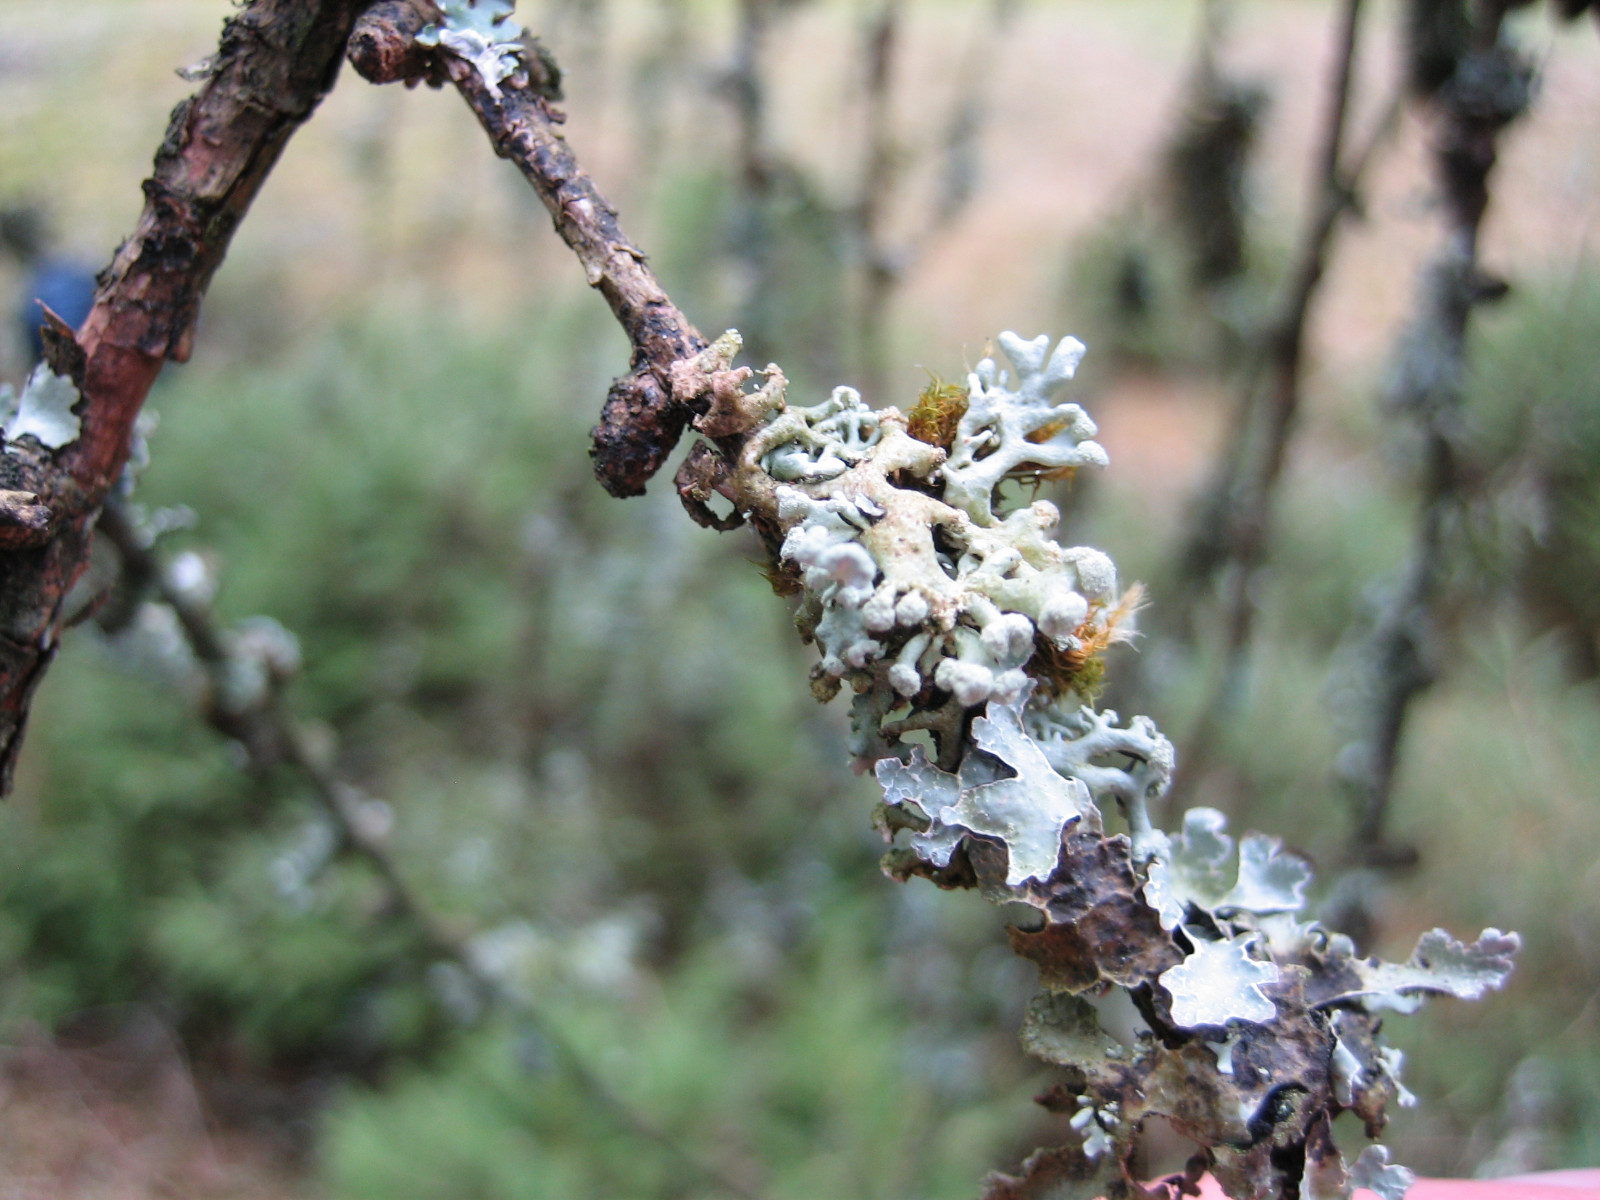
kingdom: Fungi
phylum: Ascomycota
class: Lecanoromycetes
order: Lecanorales
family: Parmeliaceae
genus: Hypogymnia
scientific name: Hypogymnia tubulosa
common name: finger-kvistlav
